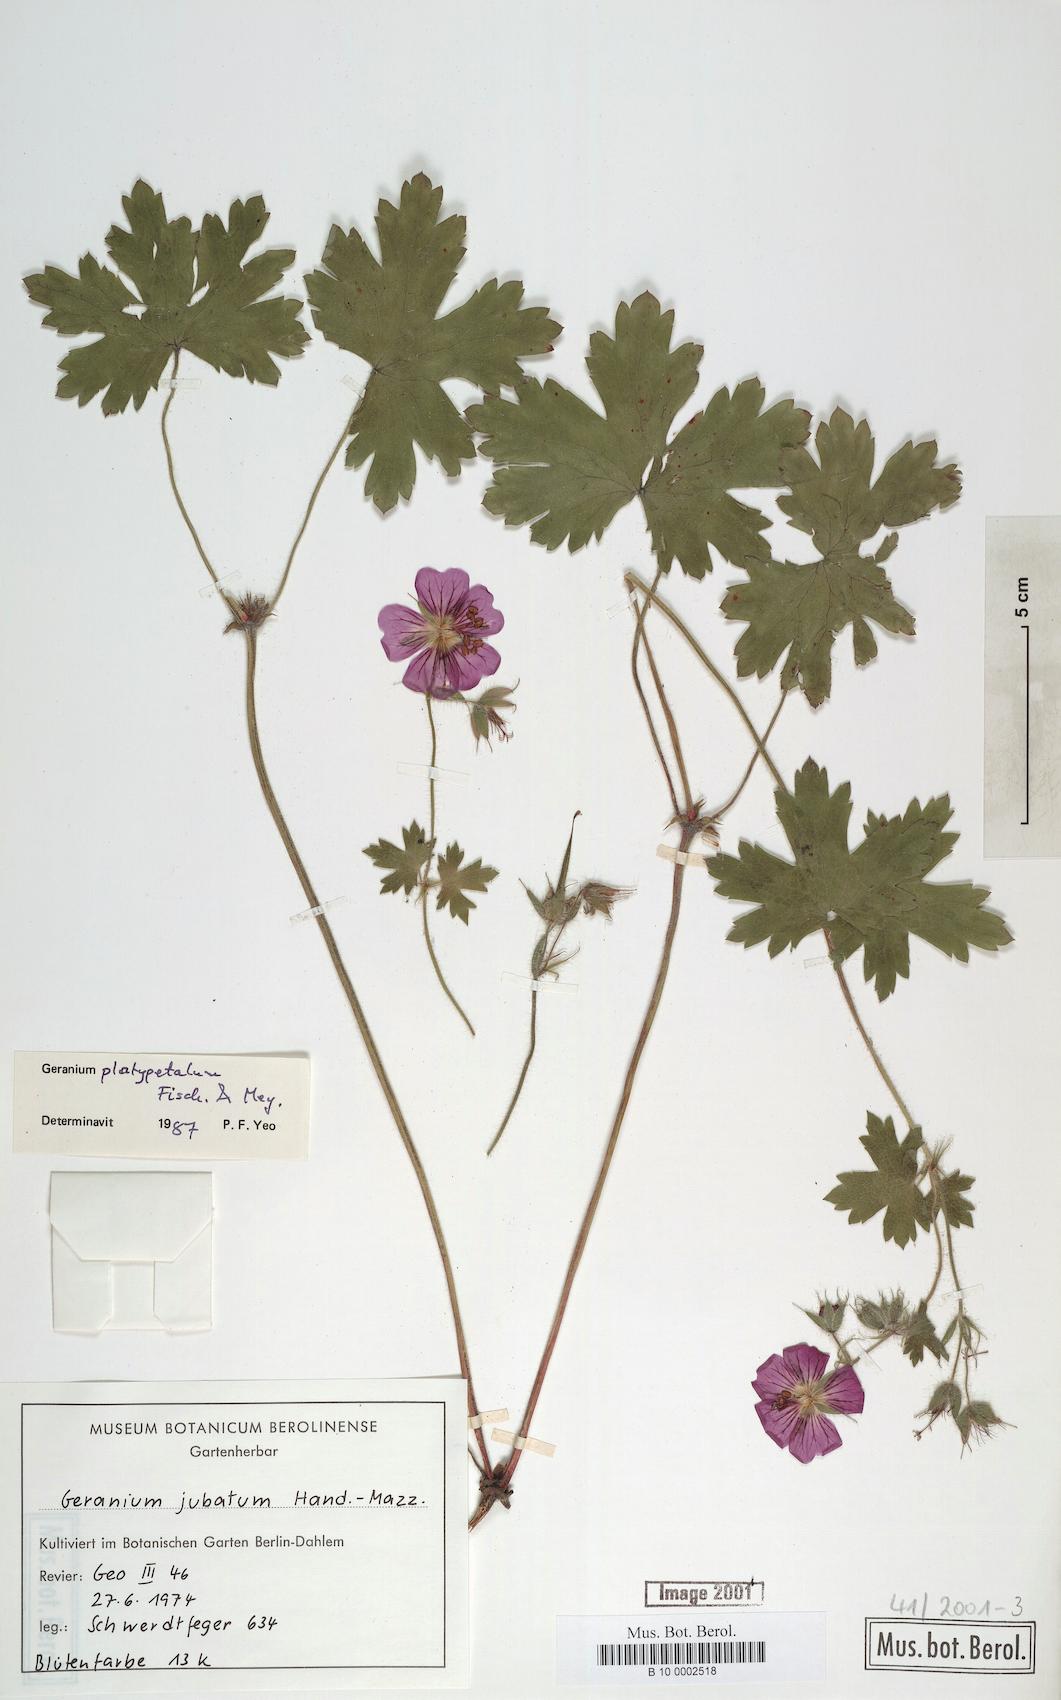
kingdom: Plantae
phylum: Tracheophyta
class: Magnoliopsida
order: Geraniales
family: Geraniaceae
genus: Geranium
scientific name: Geranium platypetalum
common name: Glandular crane's-bill
